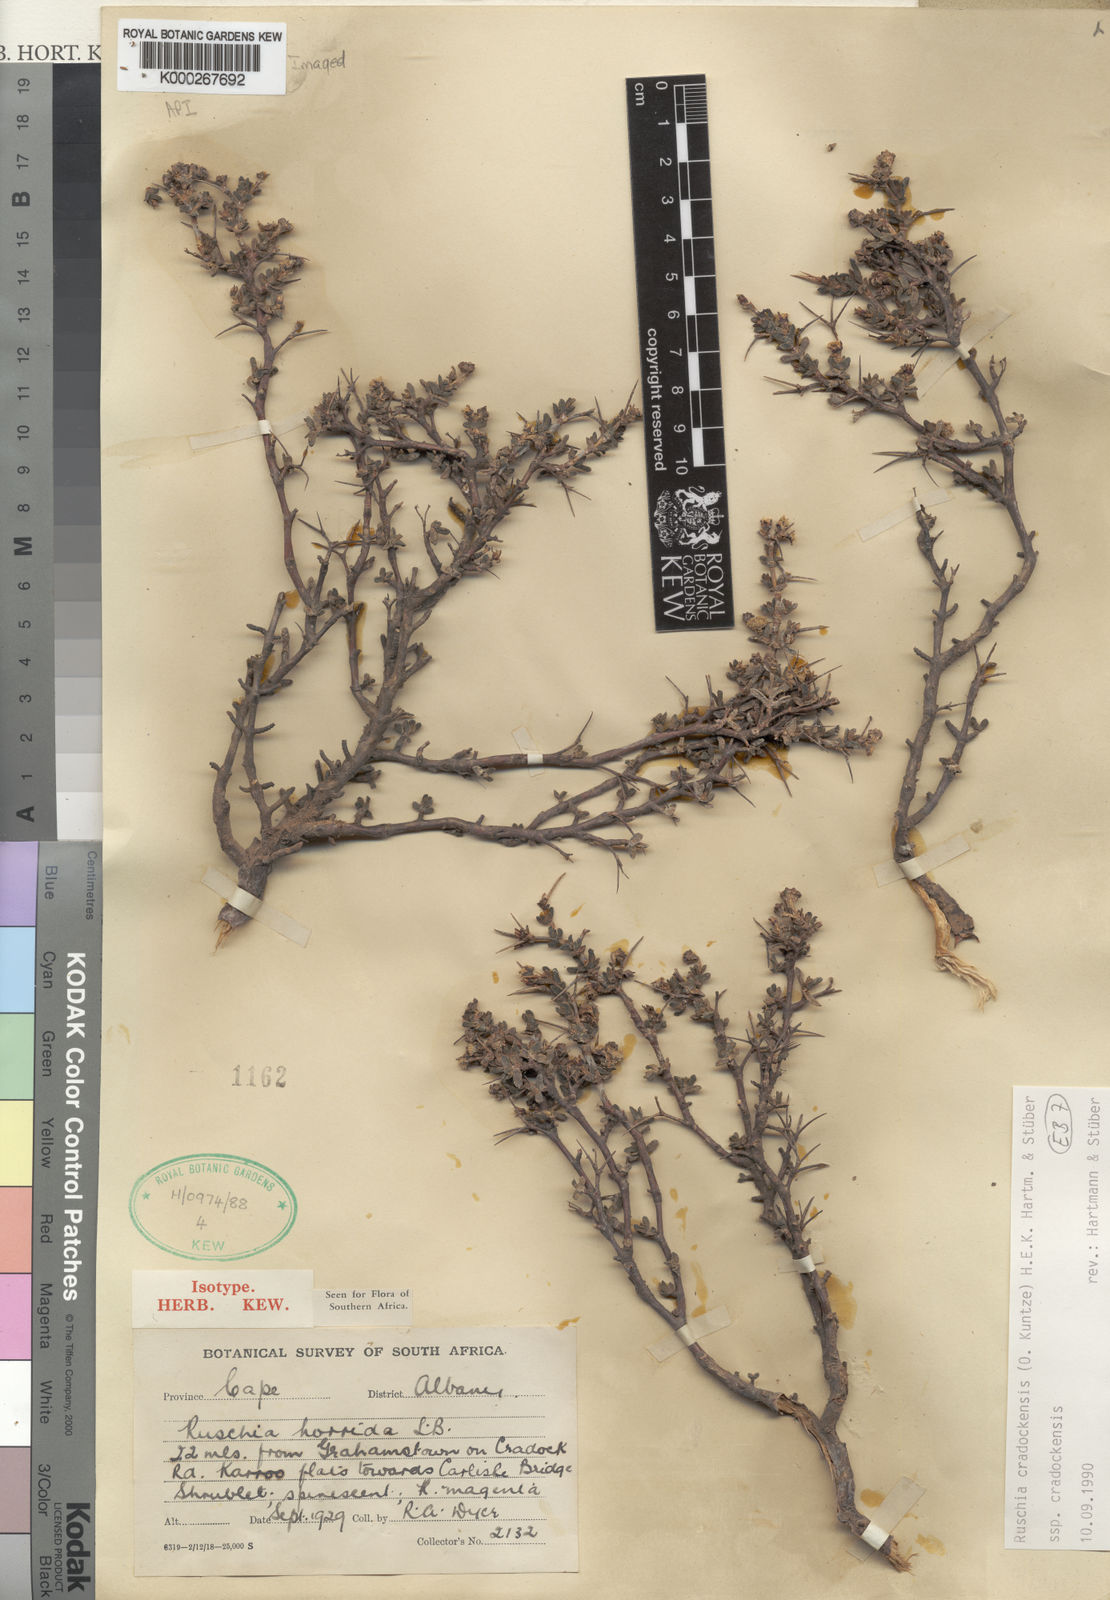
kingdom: Plantae
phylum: Tracheophyta
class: Magnoliopsida
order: Caryophyllales
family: Aizoaceae
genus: Ruschia
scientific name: Ruschia
